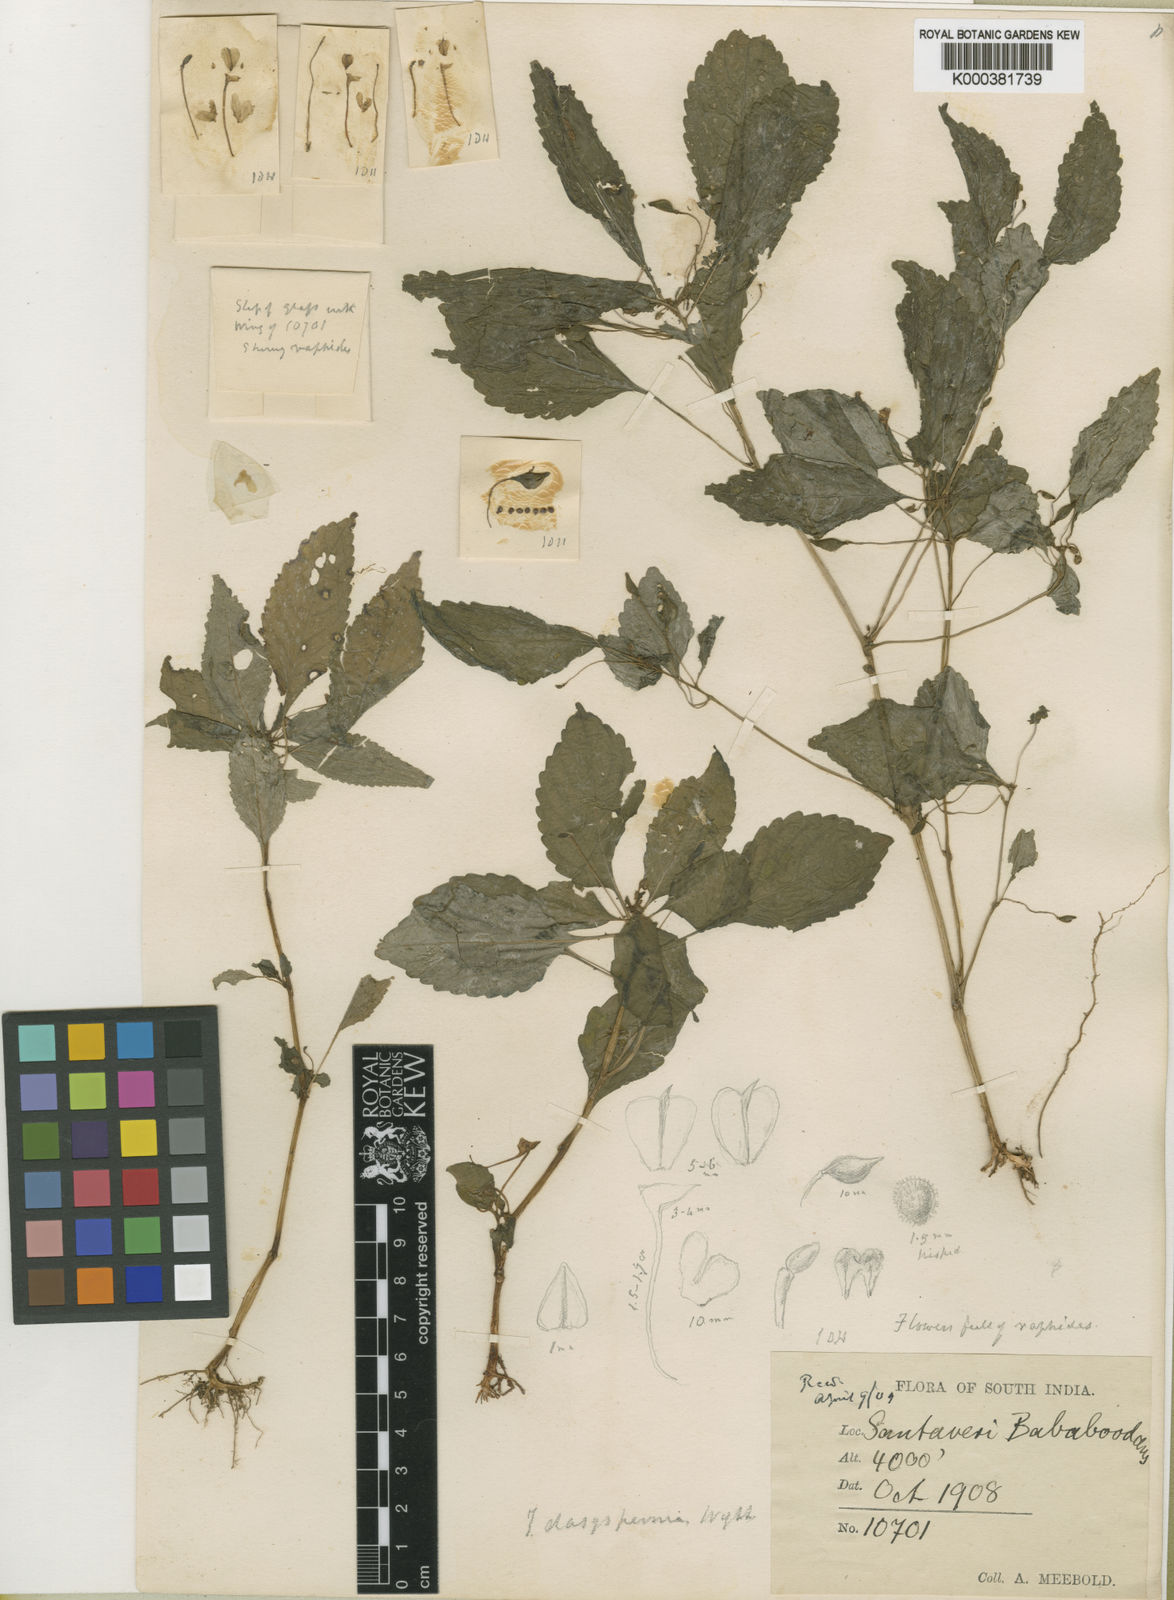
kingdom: Plantae
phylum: Tracheophyta
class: Magnoliopsida
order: Ericales
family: Balsaminaceae
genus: Impatiens
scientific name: Impatiens dasysperma
